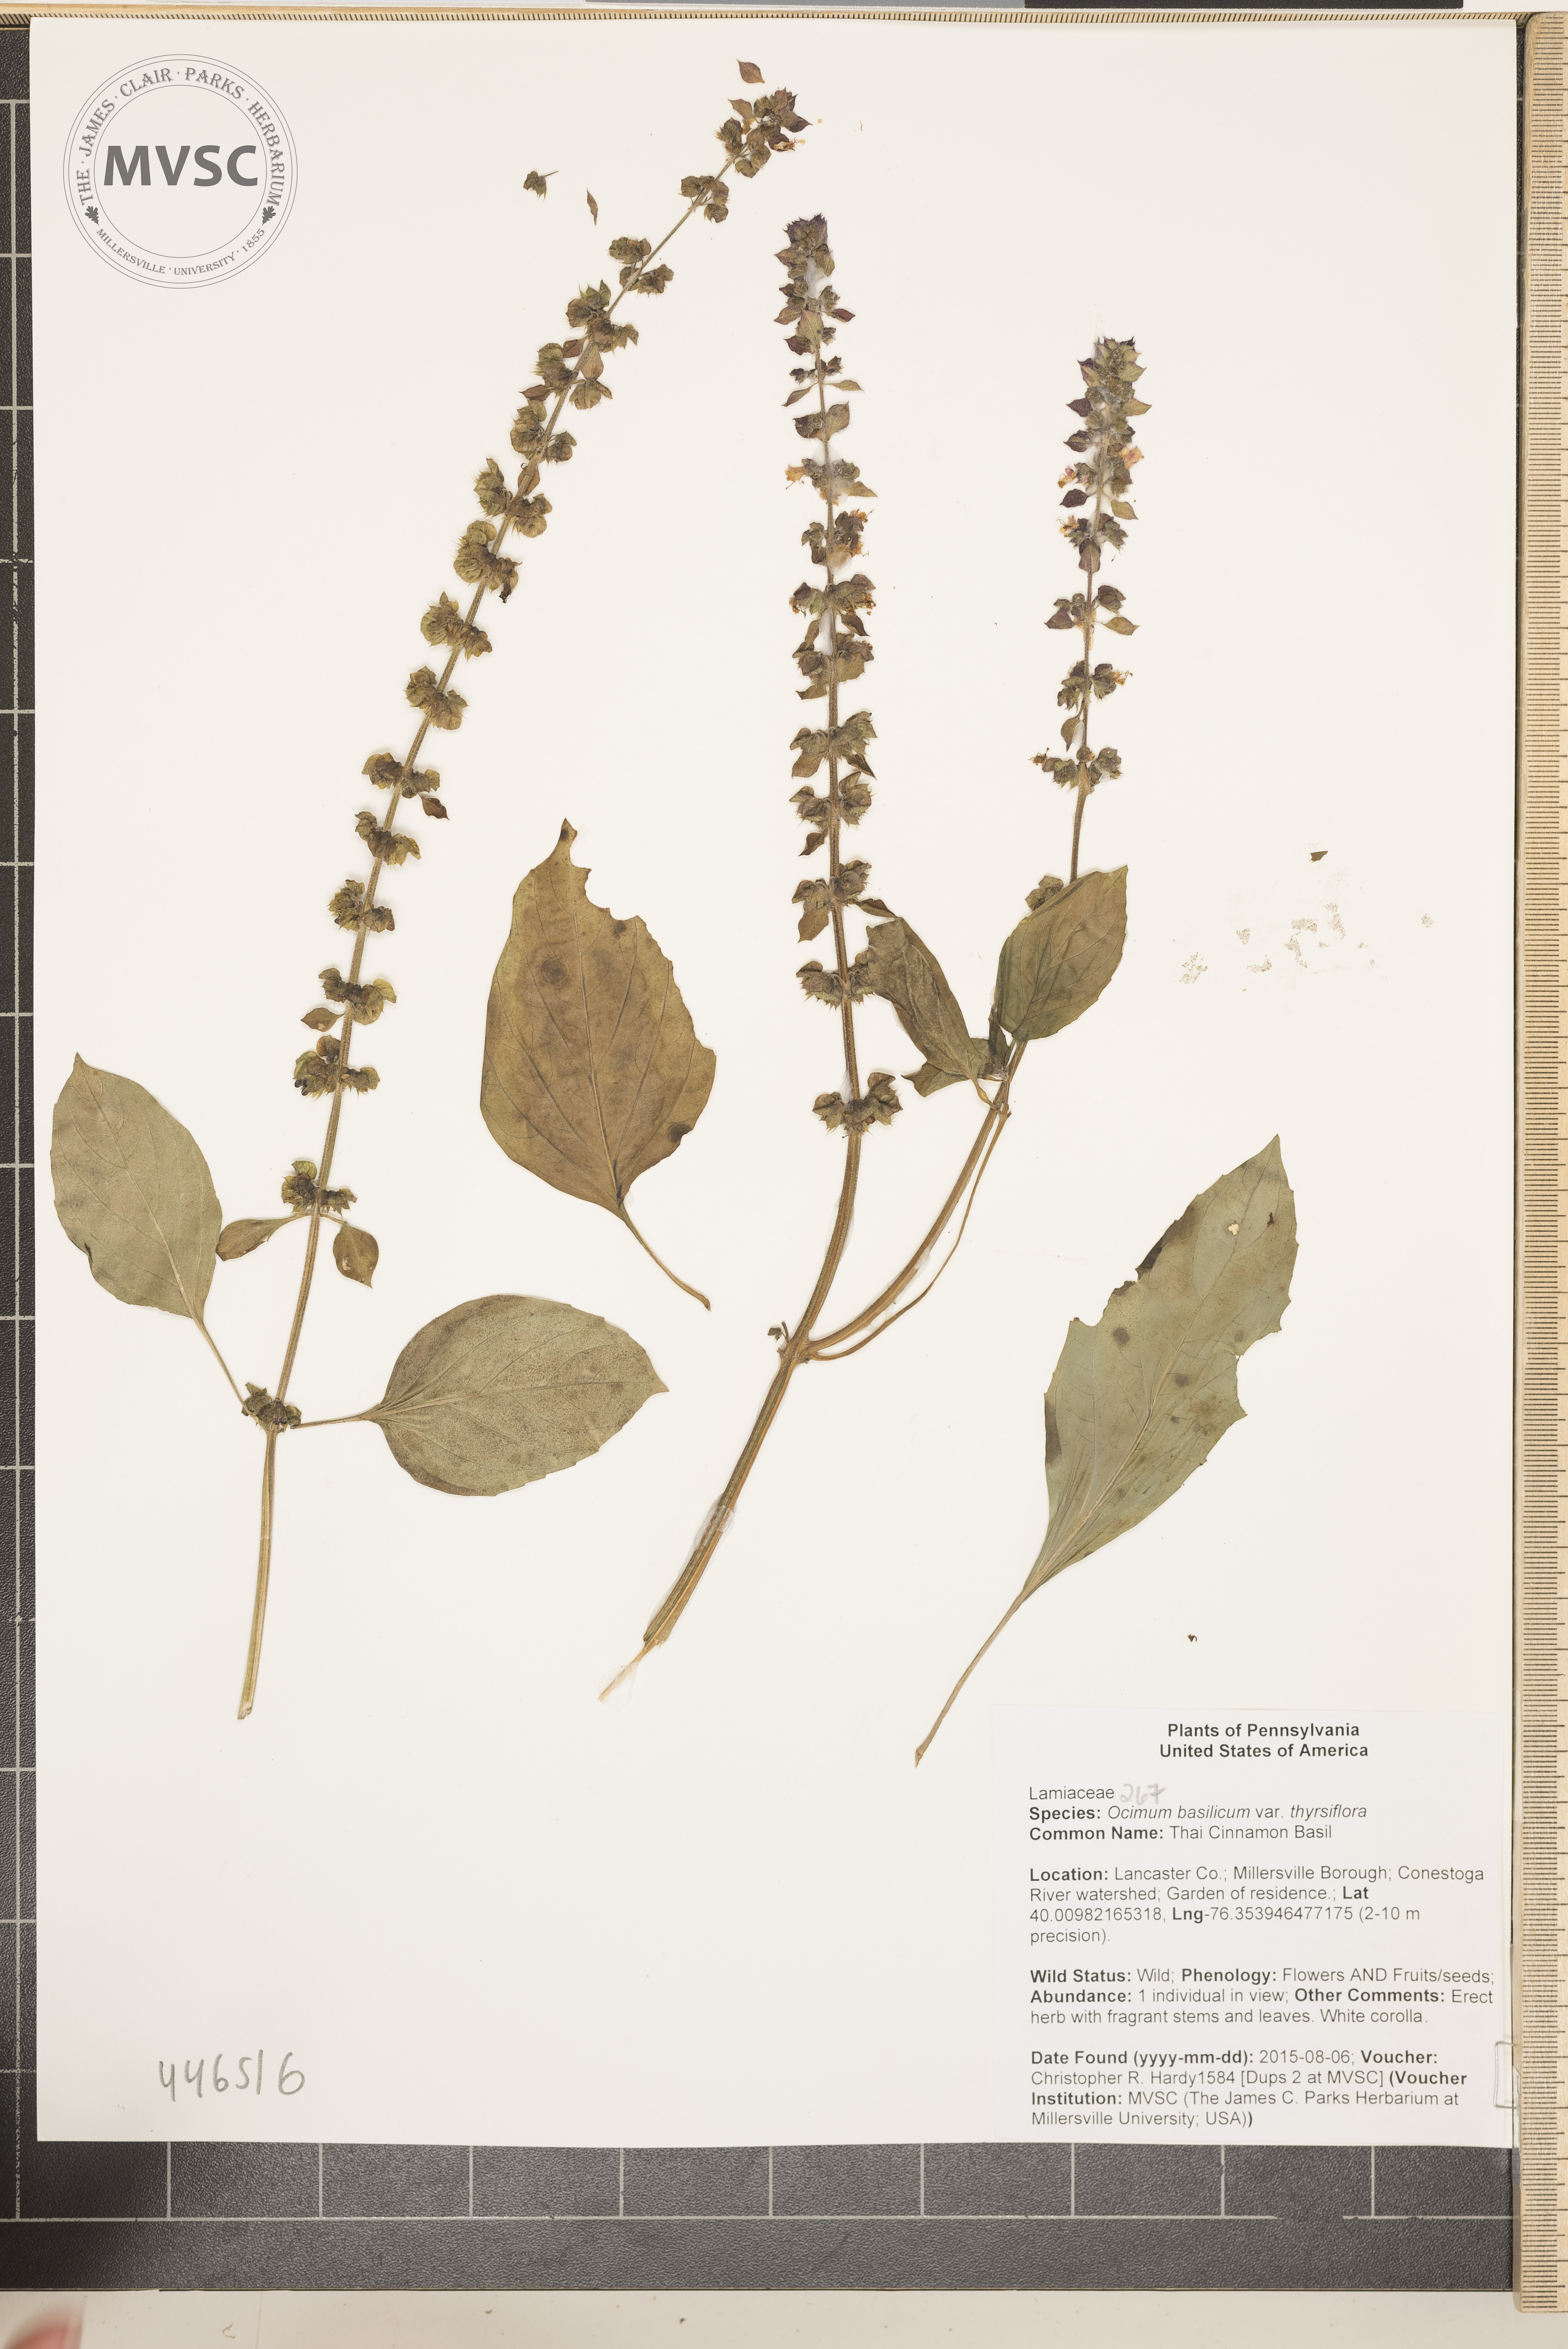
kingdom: Plantae
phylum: Tracheophyta
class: Magnoliopsida
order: Lamiales
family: Lamiaceae
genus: Ocimum
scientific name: Ocimum basilicum
